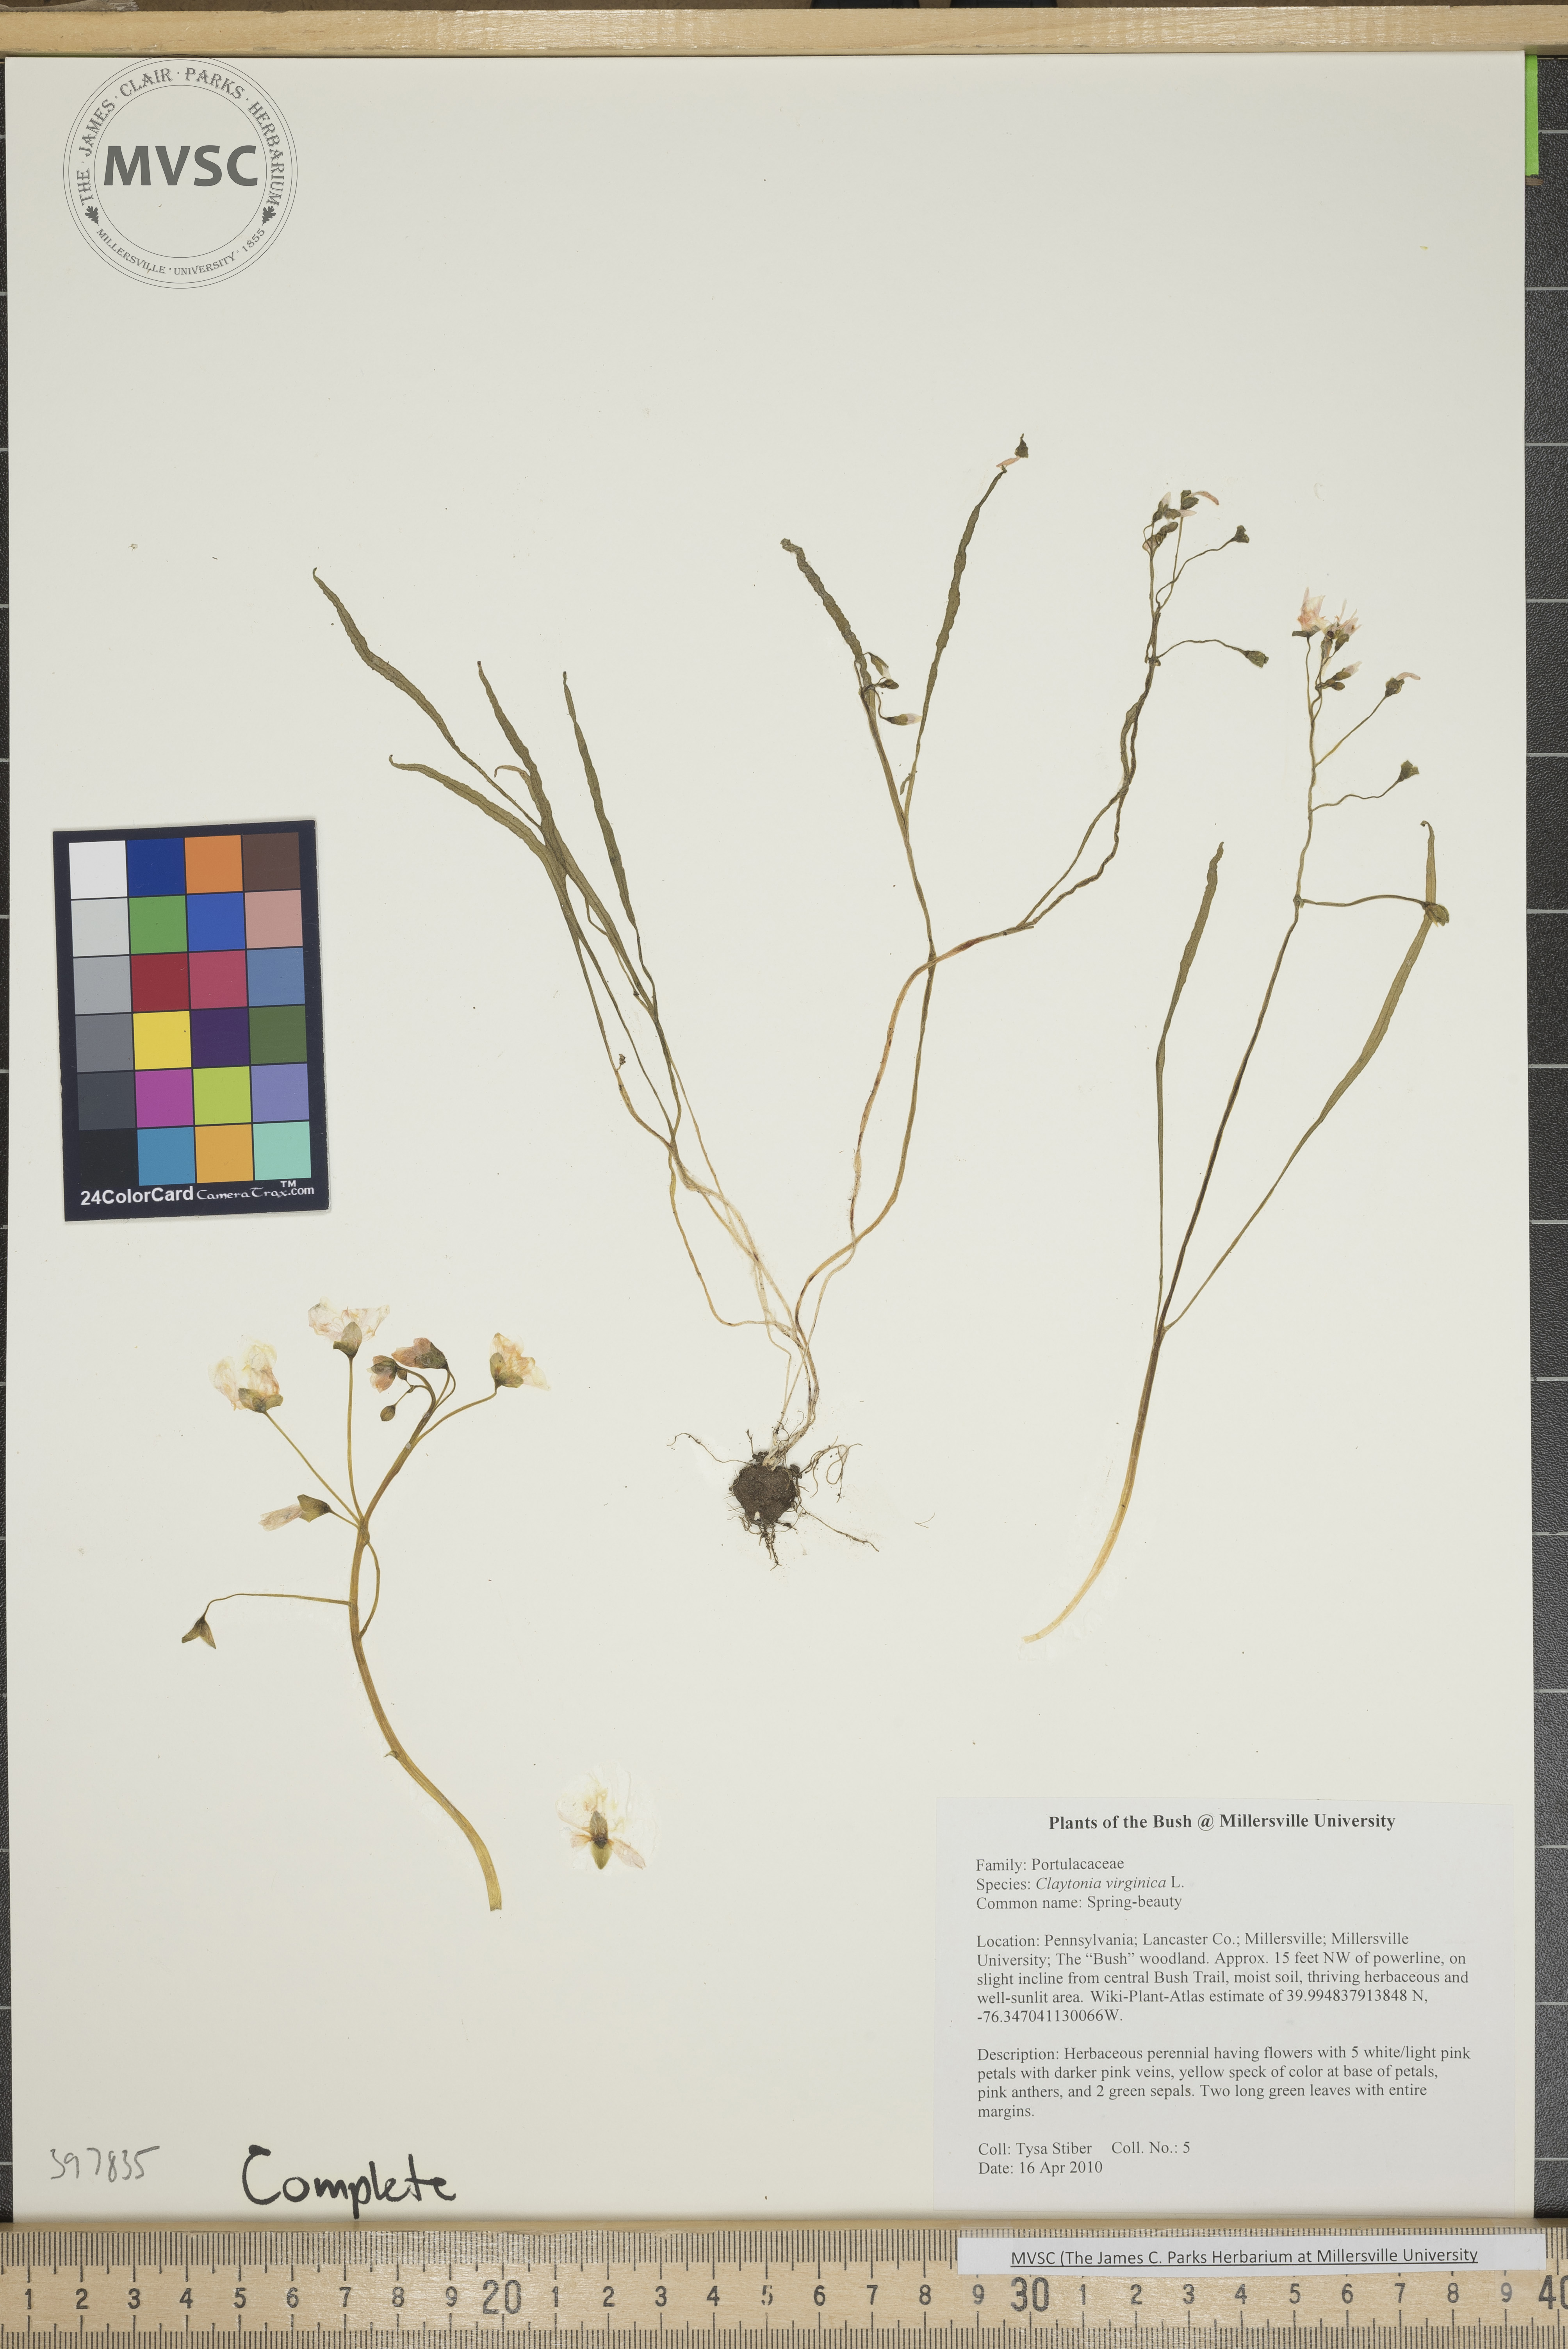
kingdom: Plantae
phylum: Tracheophyta
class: Magnoliopsida
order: Caryophyllales
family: Montiaceae
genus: Claytonia
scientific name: Claytonia virginica
